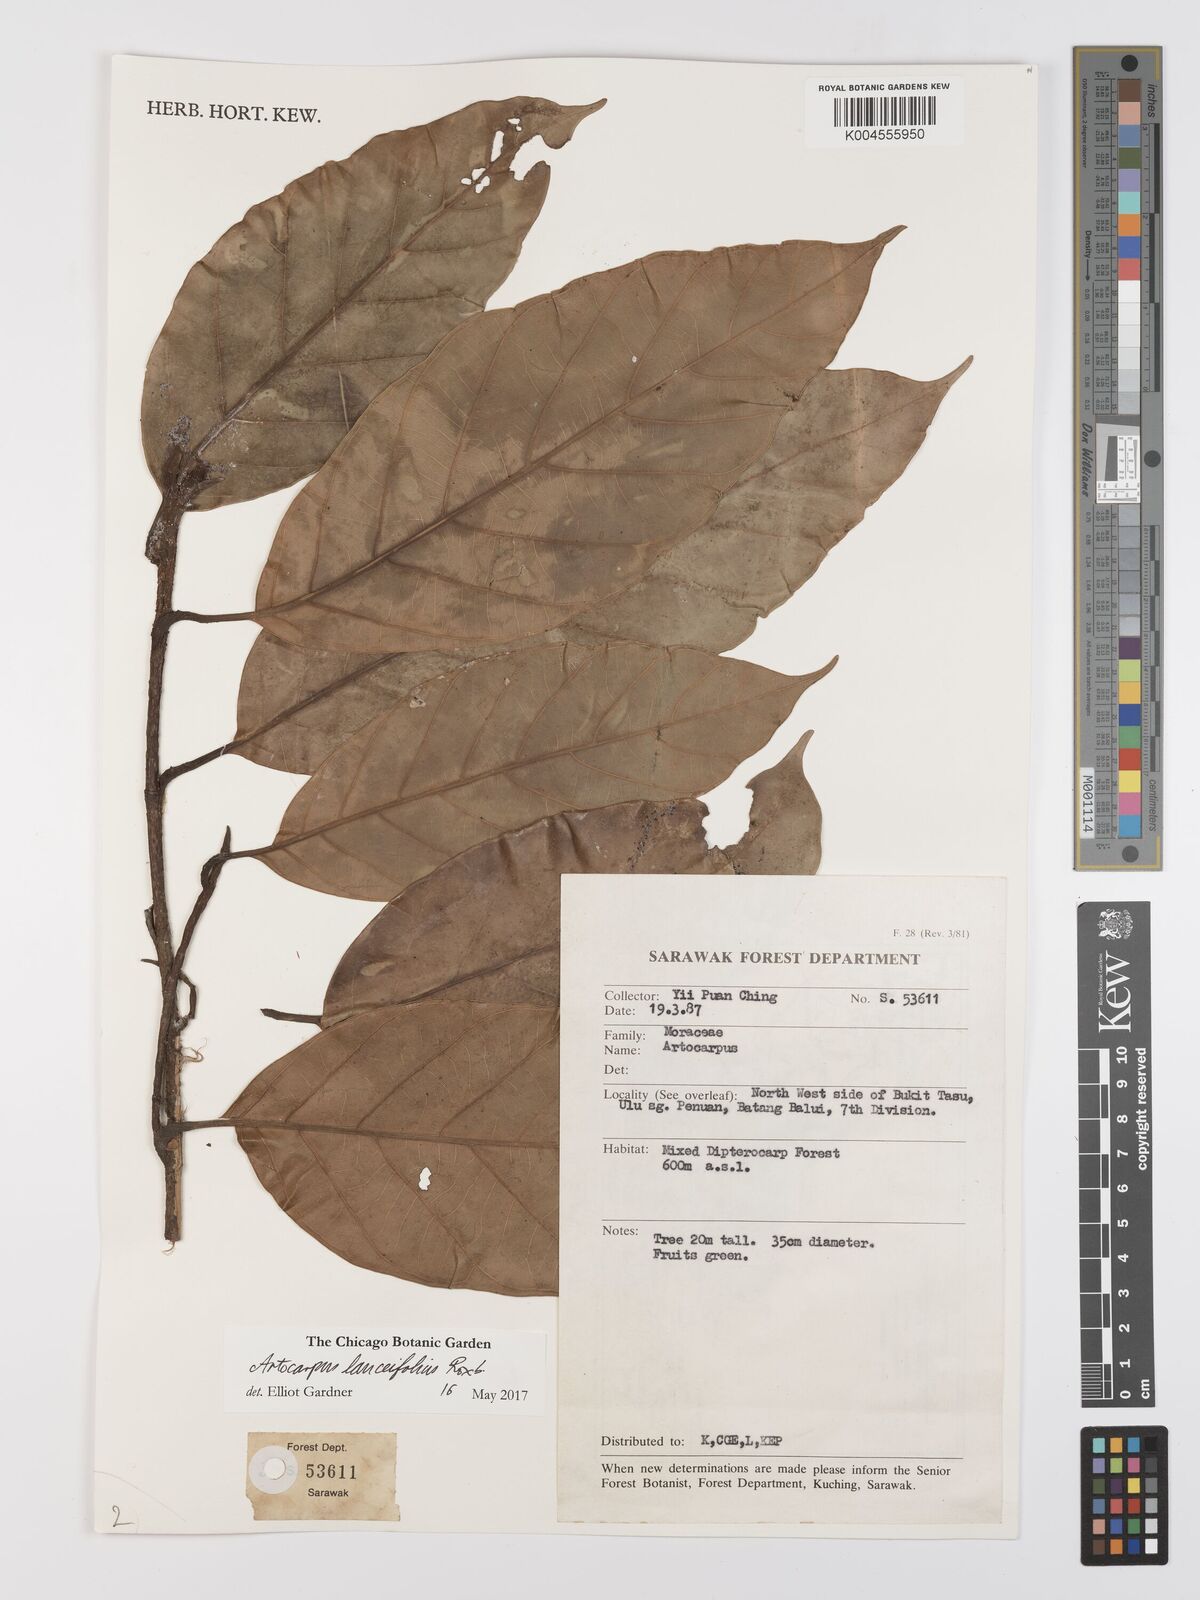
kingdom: Plantae
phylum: Tracheophyta
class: Magnoliopsida
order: Rosales
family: Moraceae
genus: Artocarpus
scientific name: Artocarpus lanceifolius
